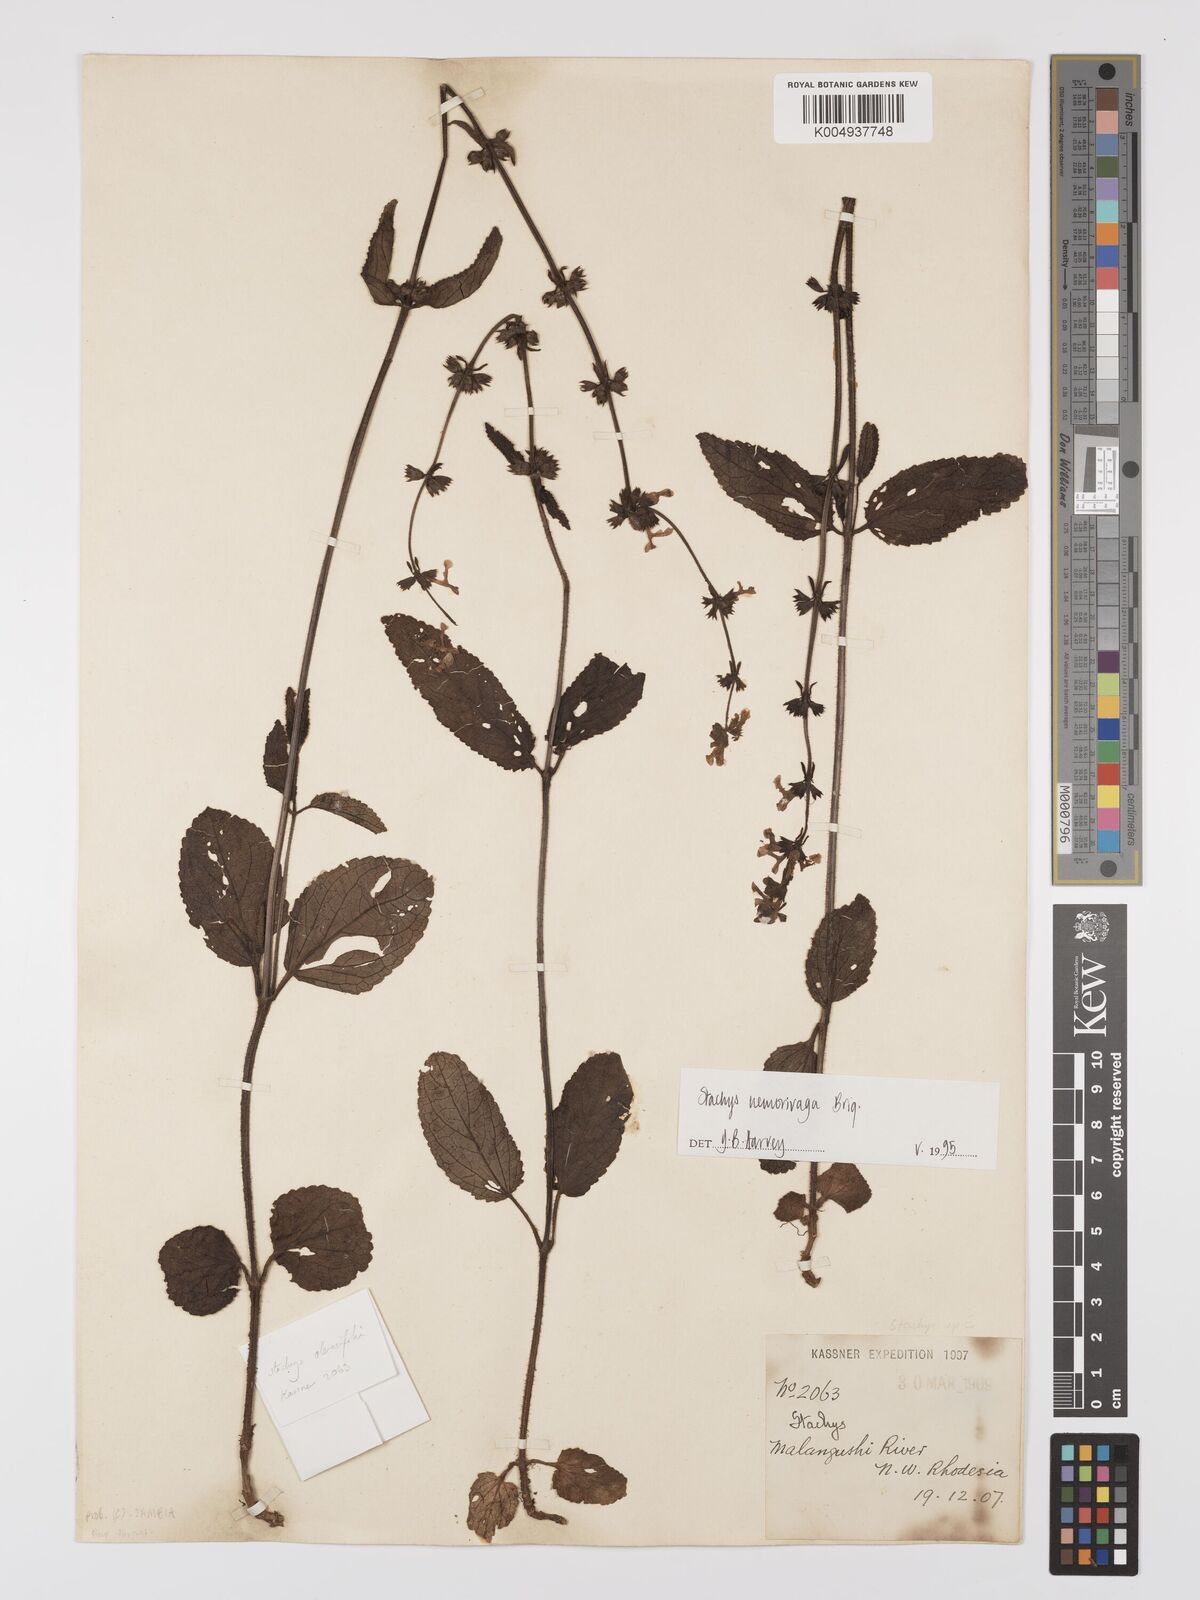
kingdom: Plantae
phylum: Tracheophyta
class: Magnoliopsida
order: Lamiales
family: Lamiaceae
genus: Stachys
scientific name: Stachys nemorivaga
